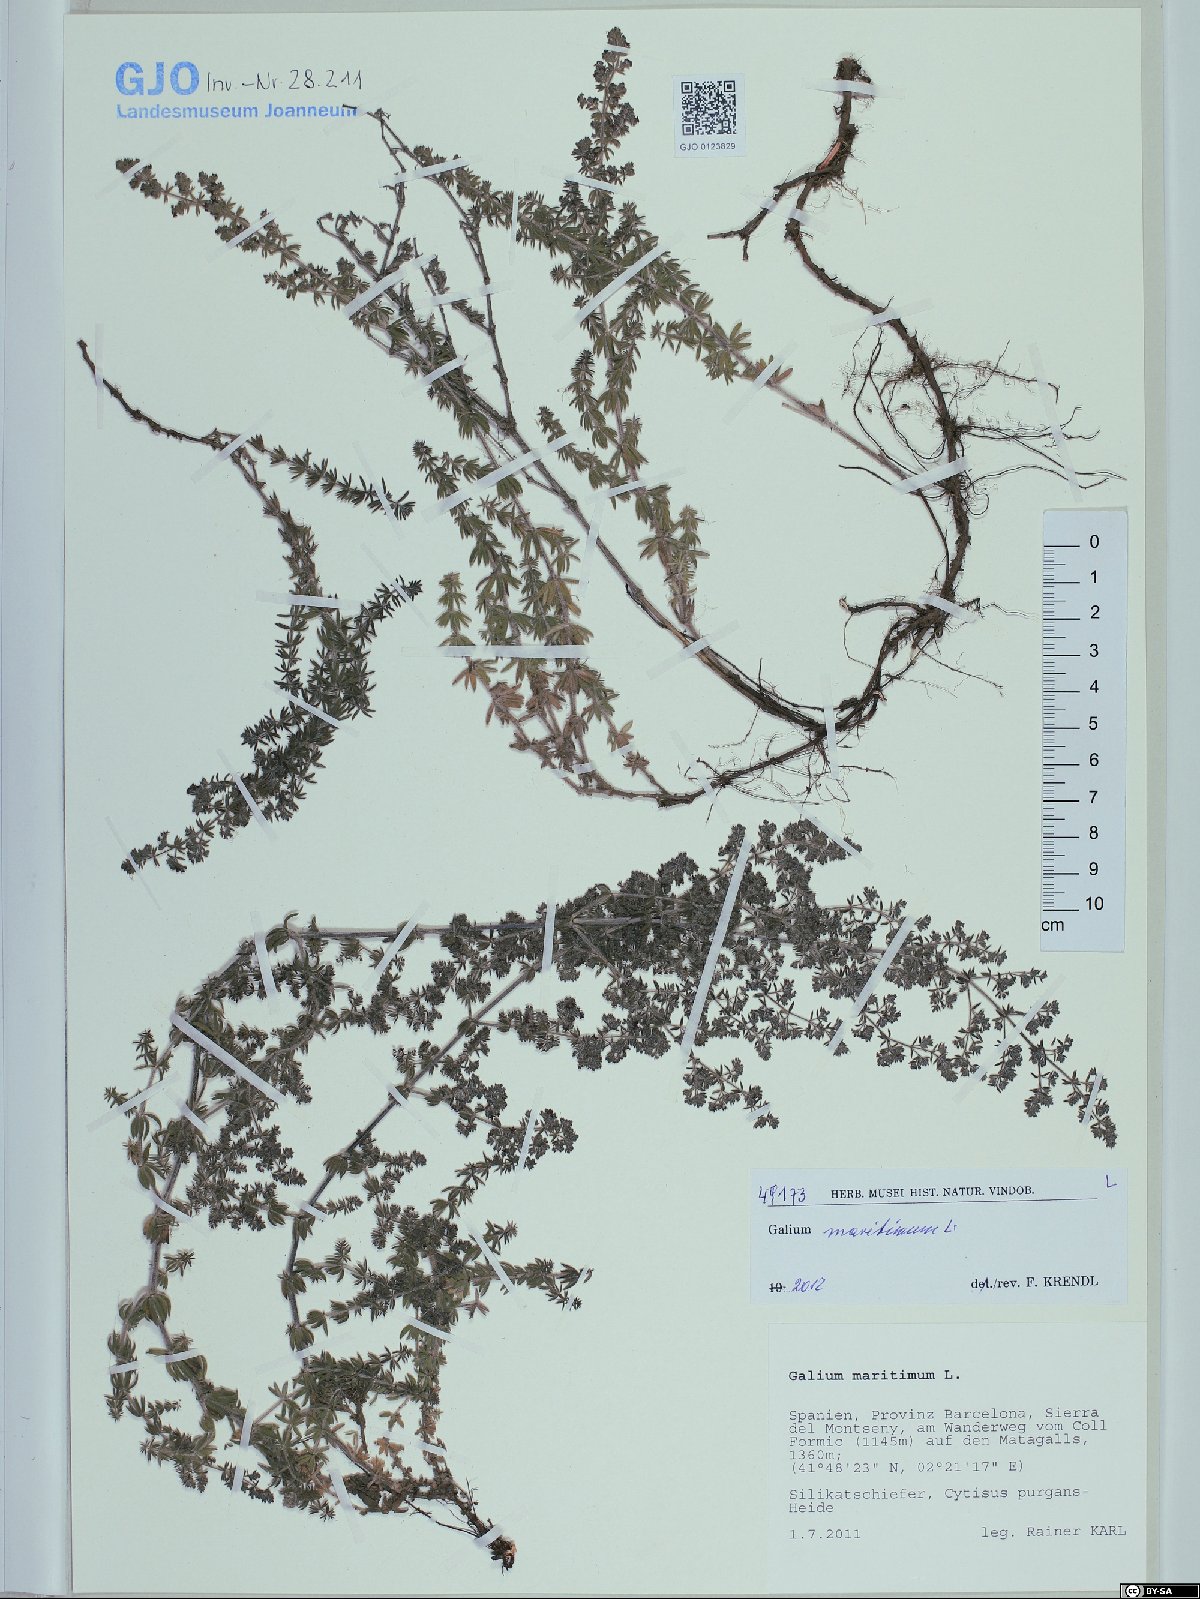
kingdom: Plantae
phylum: Tracheophyta
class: Magnoliopsida
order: Gentianales
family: Rubiaceae
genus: Galium
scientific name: Galium maritimum
